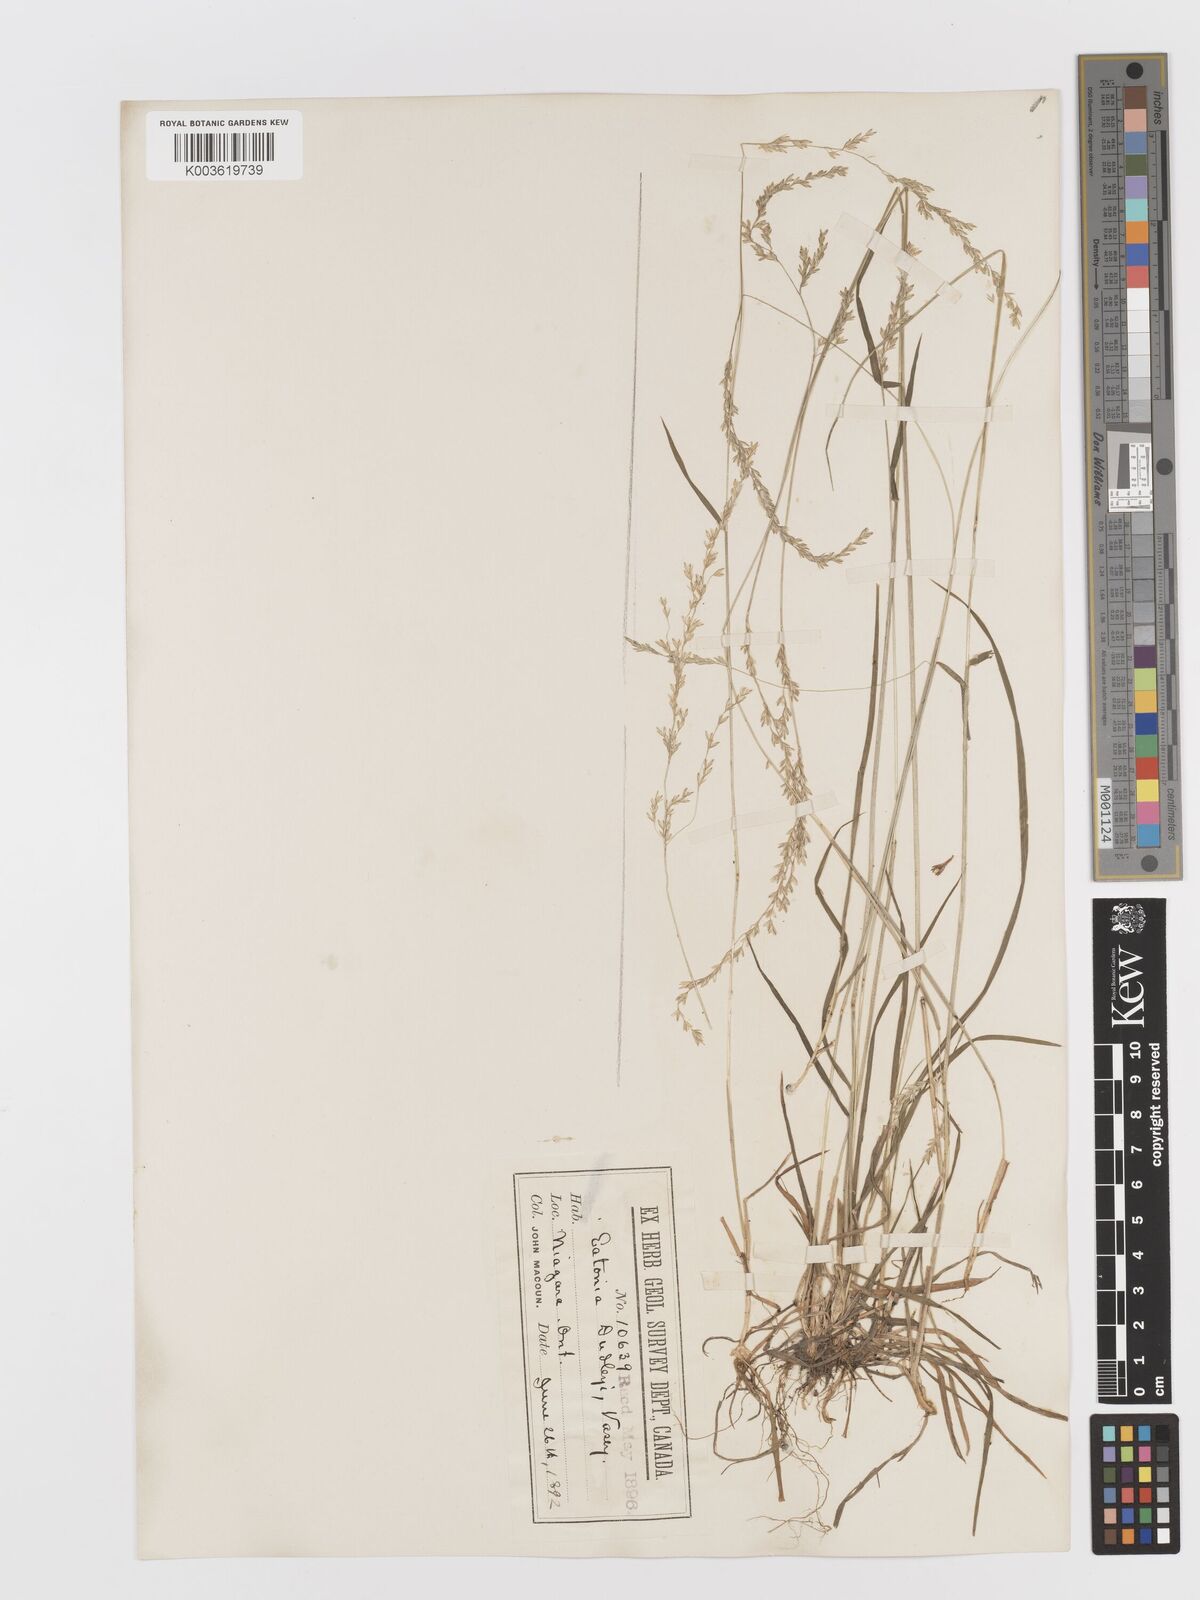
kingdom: Plantae
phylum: Tracheophyta
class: Liliopsida
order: Poales
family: Poaceae
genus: Sphenopholis
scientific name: Sphenopholis nitida
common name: Shiny wedgegrass
